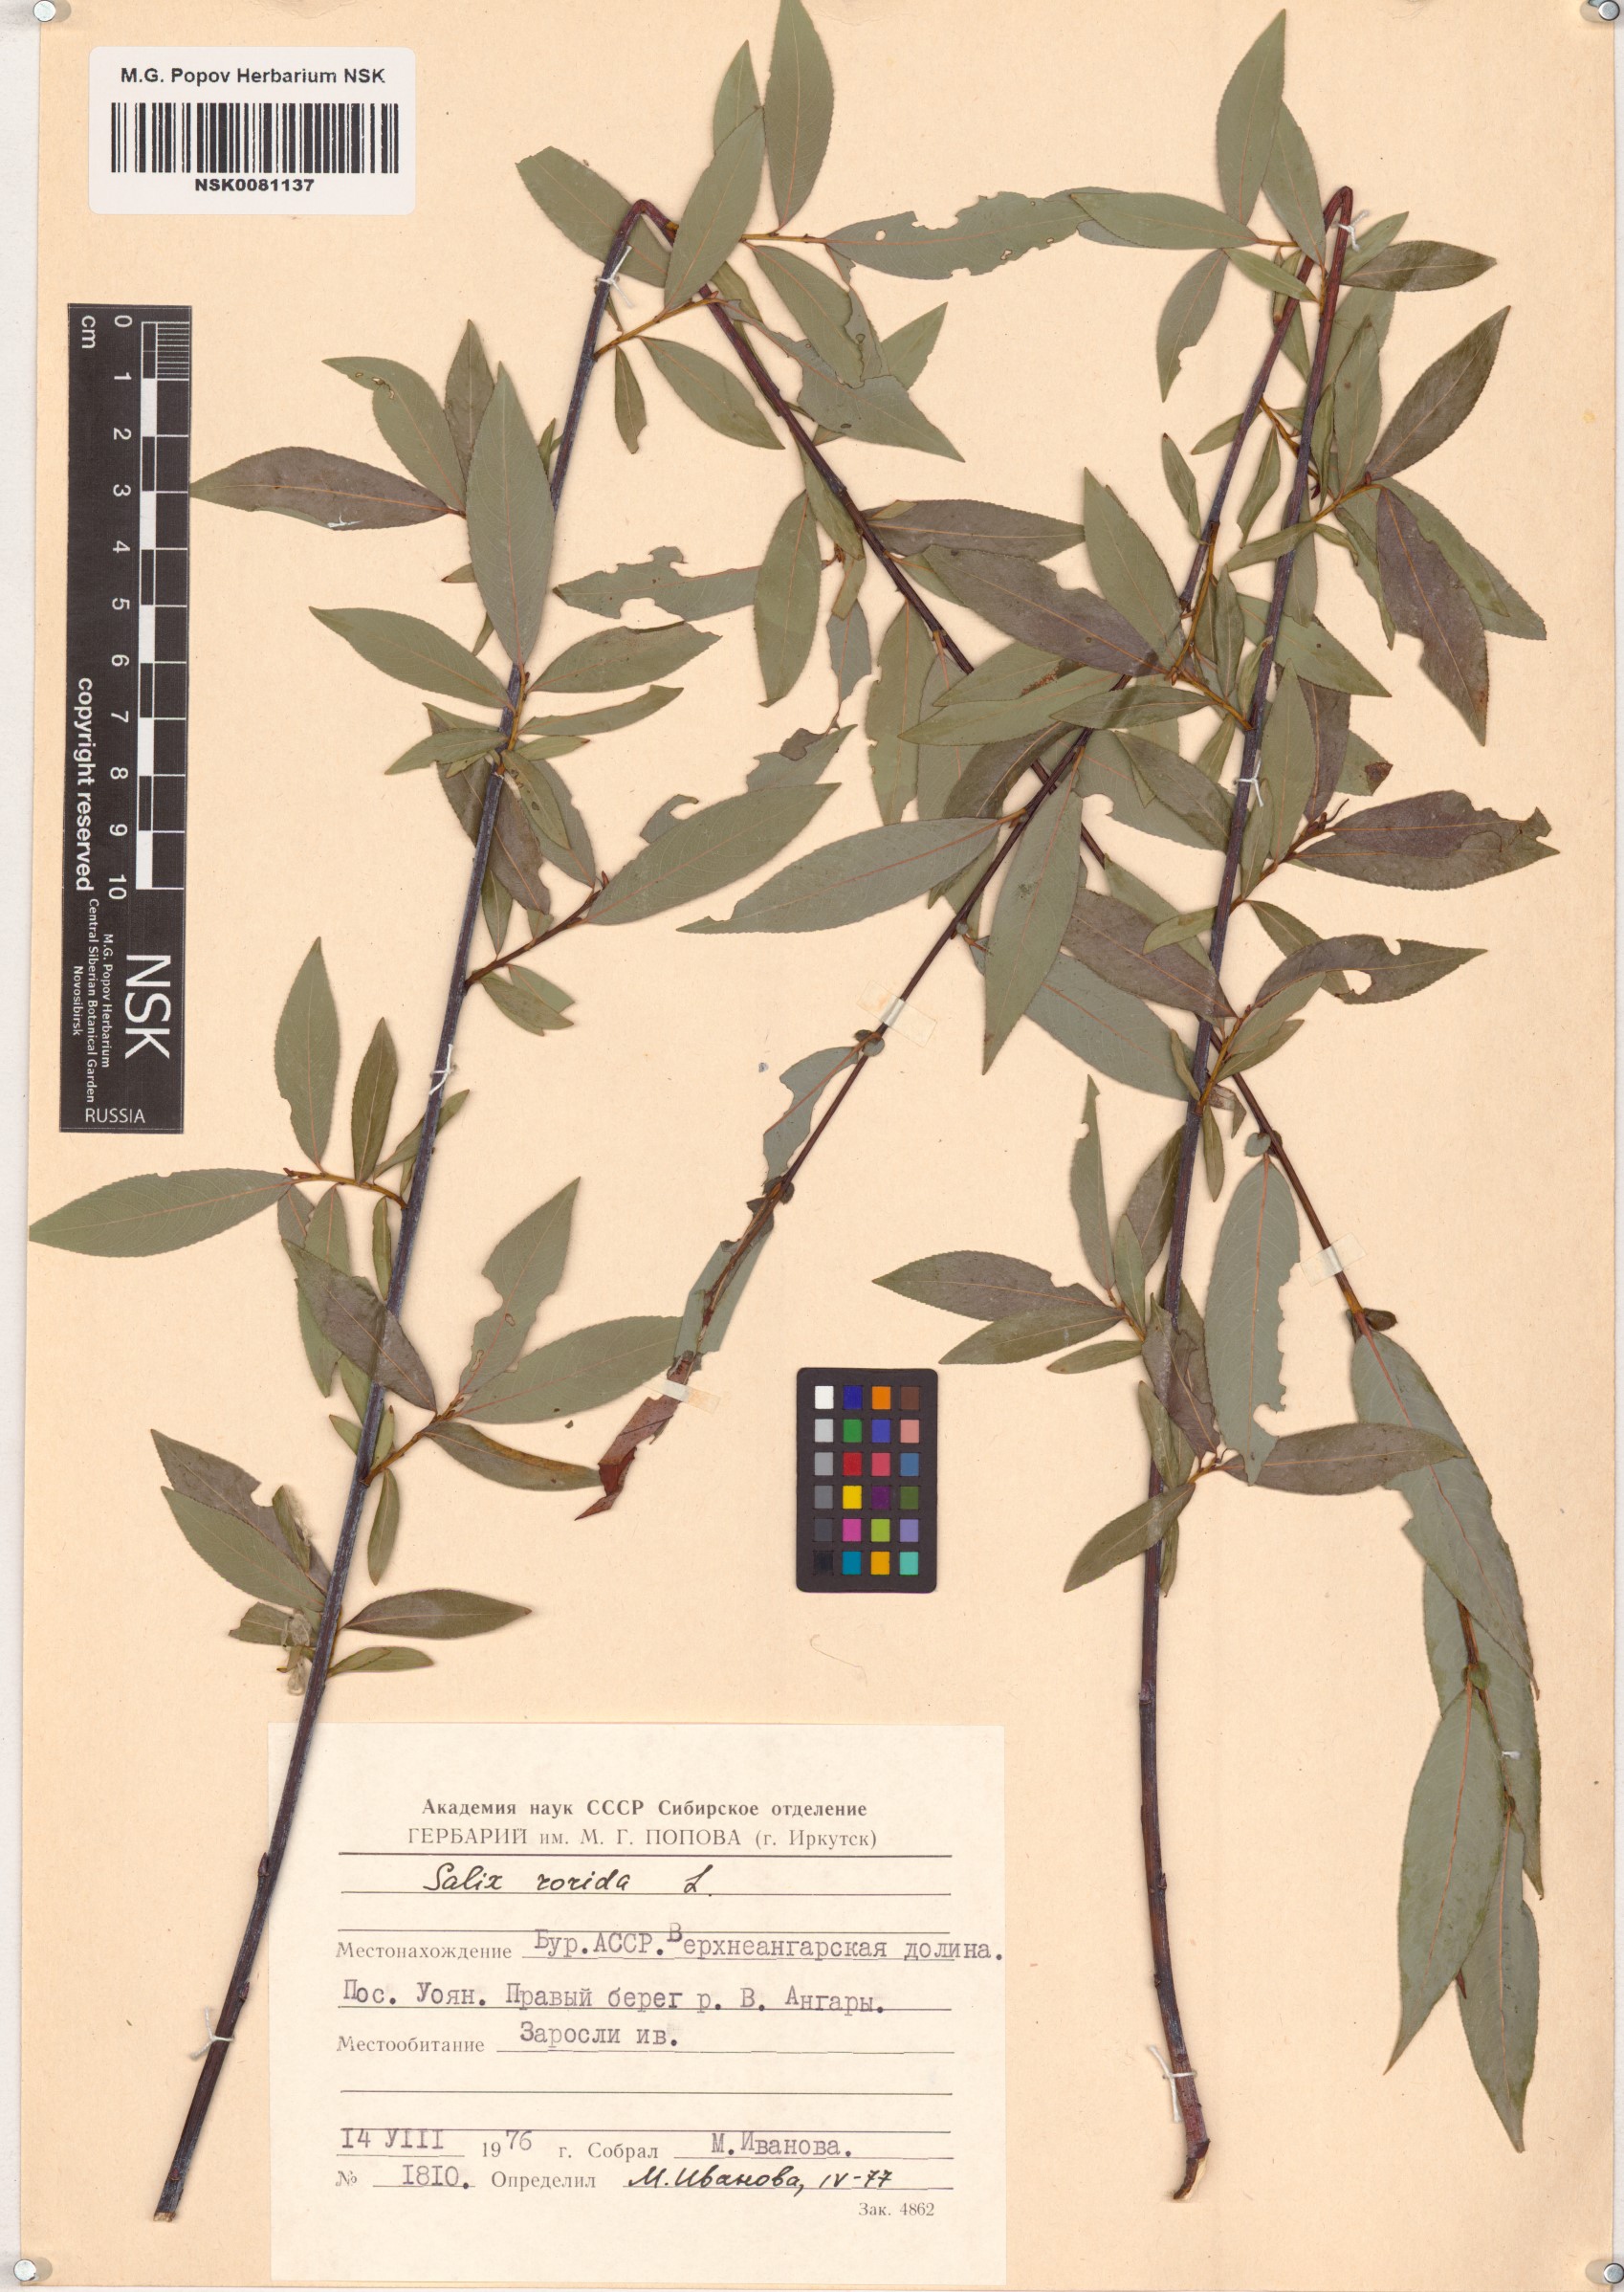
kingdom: Plantae
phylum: Tracheophyta
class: Magnoliopsida
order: Malpighiales
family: Salicaceae
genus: Salix
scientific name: Salix rorida
